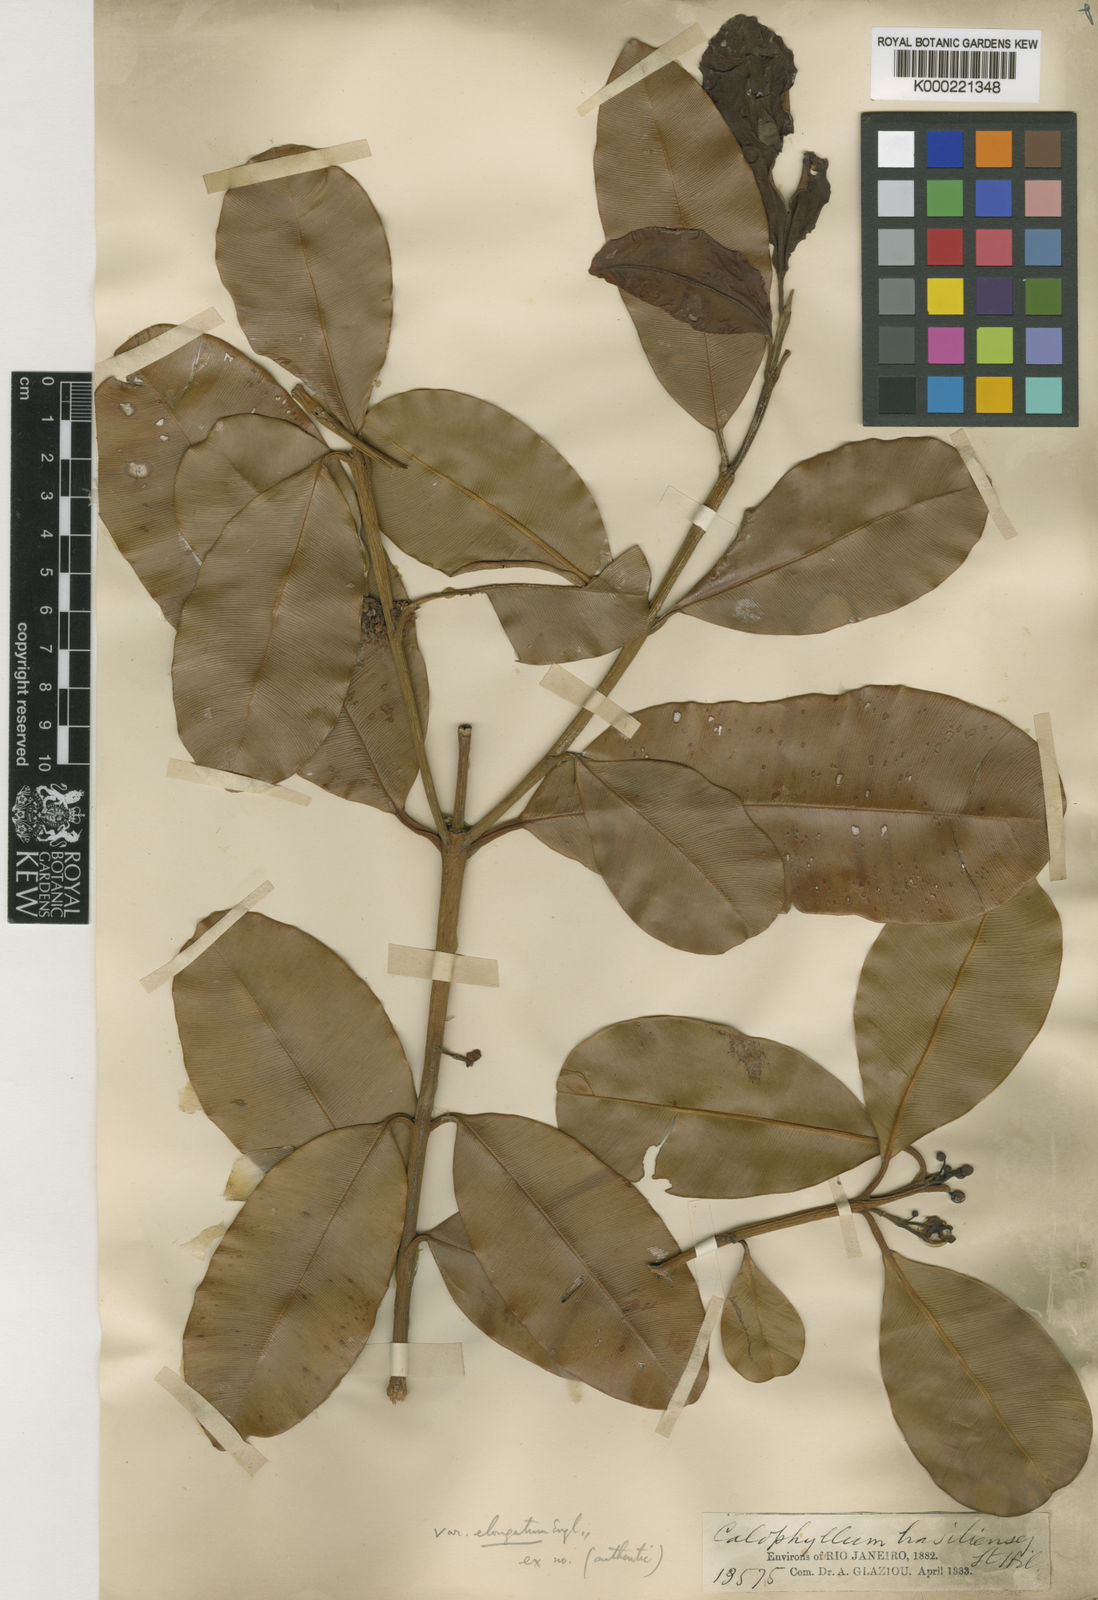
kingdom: Plantae
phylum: Tracheophyta
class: Magnoliopsida
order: Malpighiales
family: Calophyllaceae
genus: Calophyllum
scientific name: Calophyllum brasiliense
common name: Santa maria
